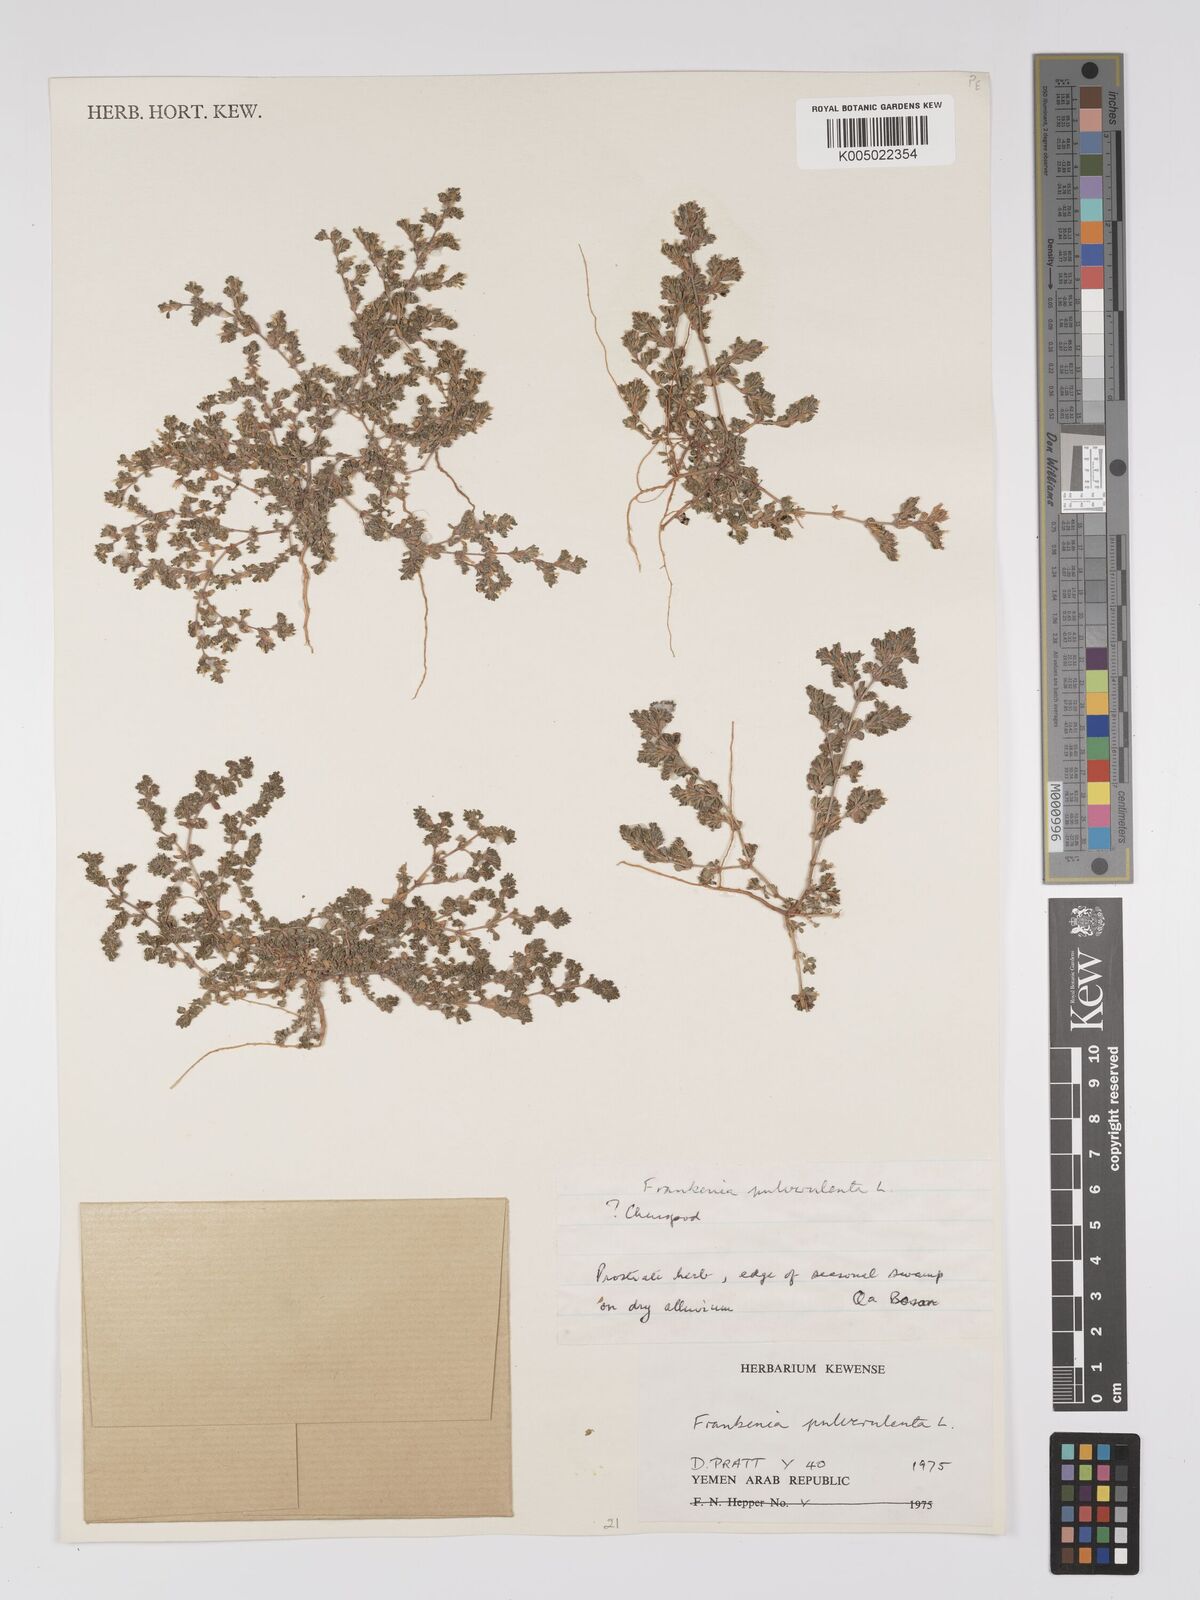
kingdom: Plantae
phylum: Tracheophyta
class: Magnoliopsida
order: Caryophyllales
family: Frankeniaceae
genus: Frankenia
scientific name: Frankenia pulverulenta
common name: European seaheath
